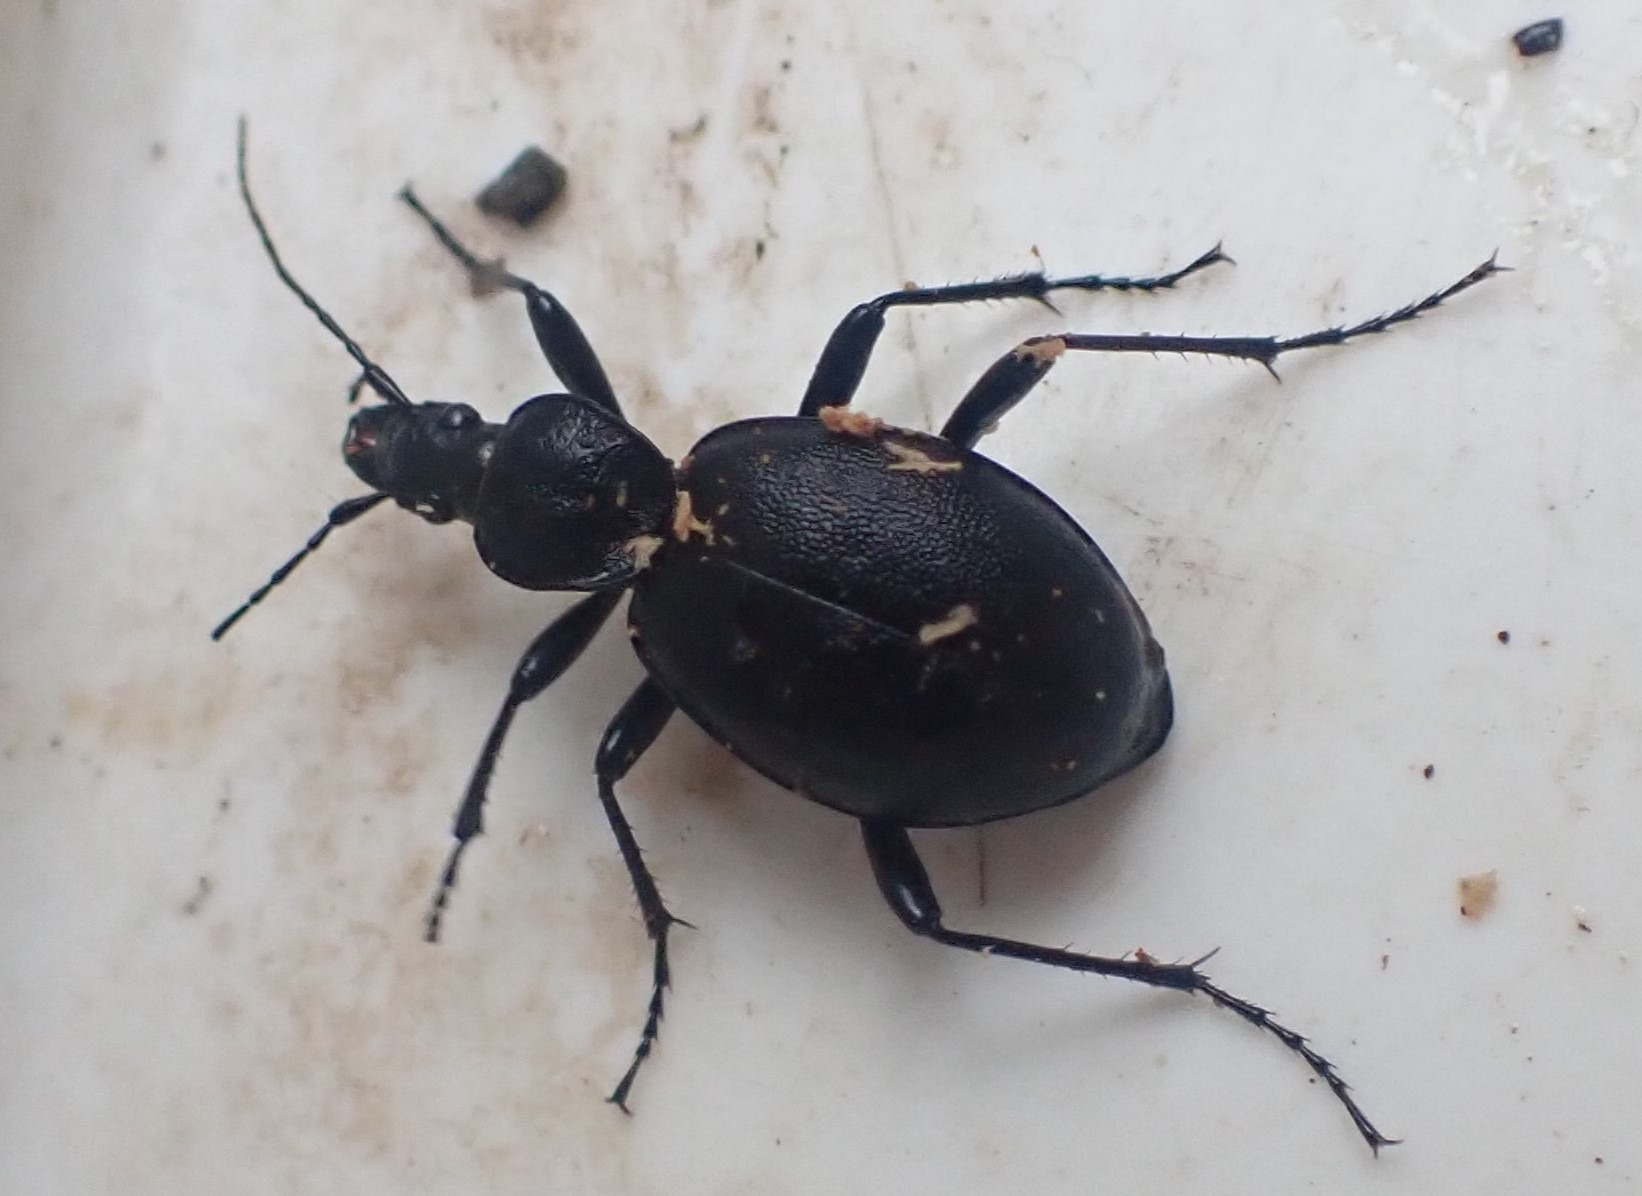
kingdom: Animalia
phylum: Arthropoda
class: Insecta
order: Coleoptera
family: Carabidae
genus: Cychrus
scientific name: Cychrus caraboides
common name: Sneglerøver
